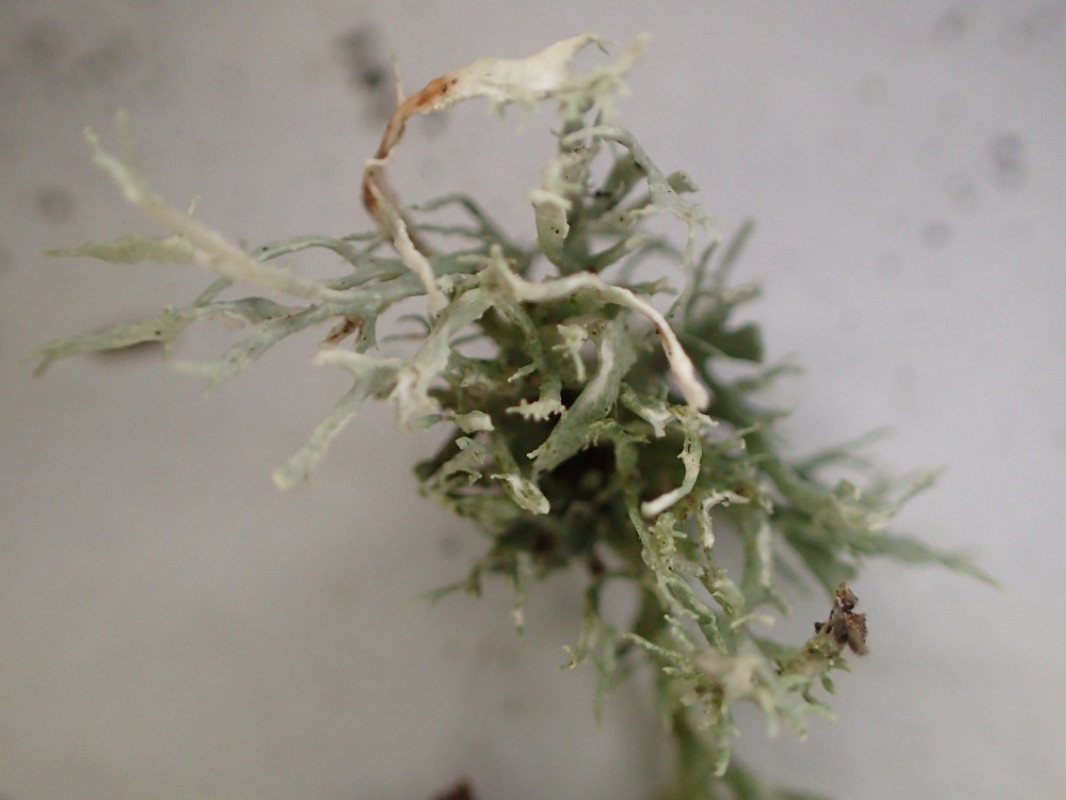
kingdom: Fungi
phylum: Ascomycota
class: Lecanoromycetes
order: Lecanorales
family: Ramalinaceae
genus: Ramalina
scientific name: Ramalina farinacea
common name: melet grenlav
